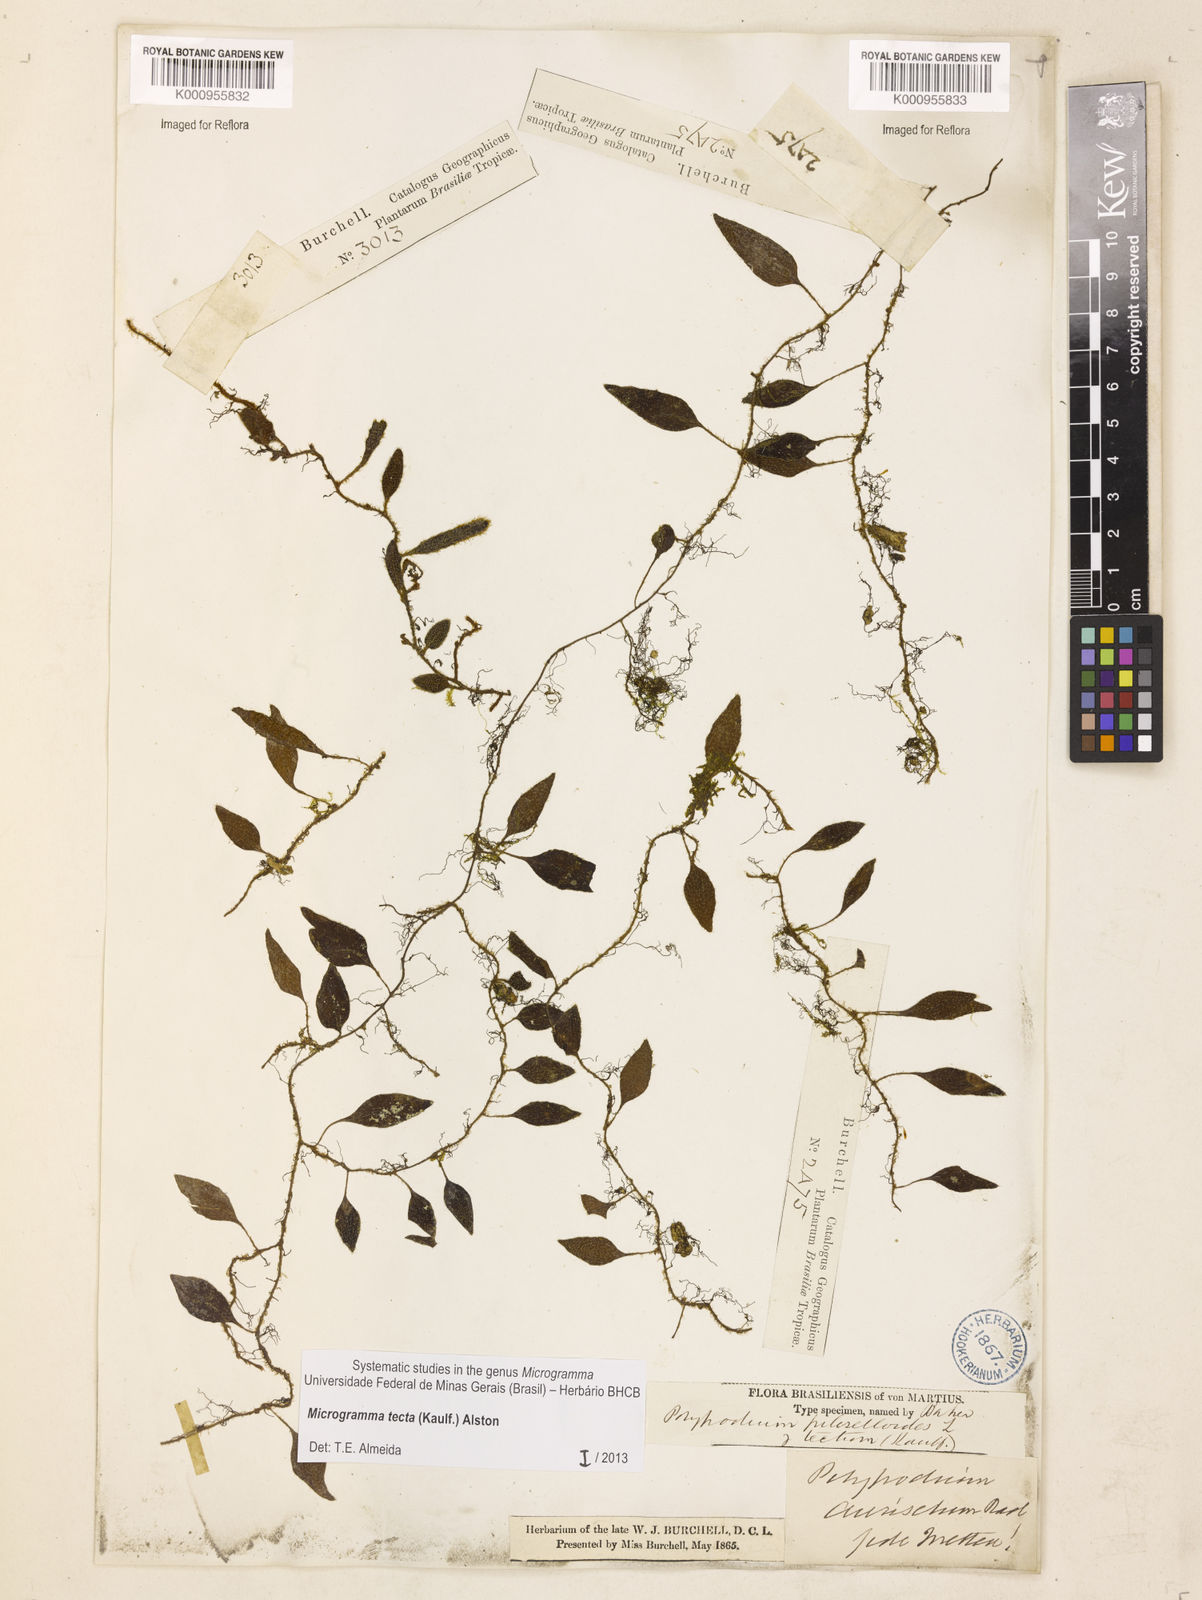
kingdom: Plantae
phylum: Tracheophyta
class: Polypodiopsida
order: Polypodiales
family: Polypodiaceae
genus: Microgramma
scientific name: Microgramma tecta
